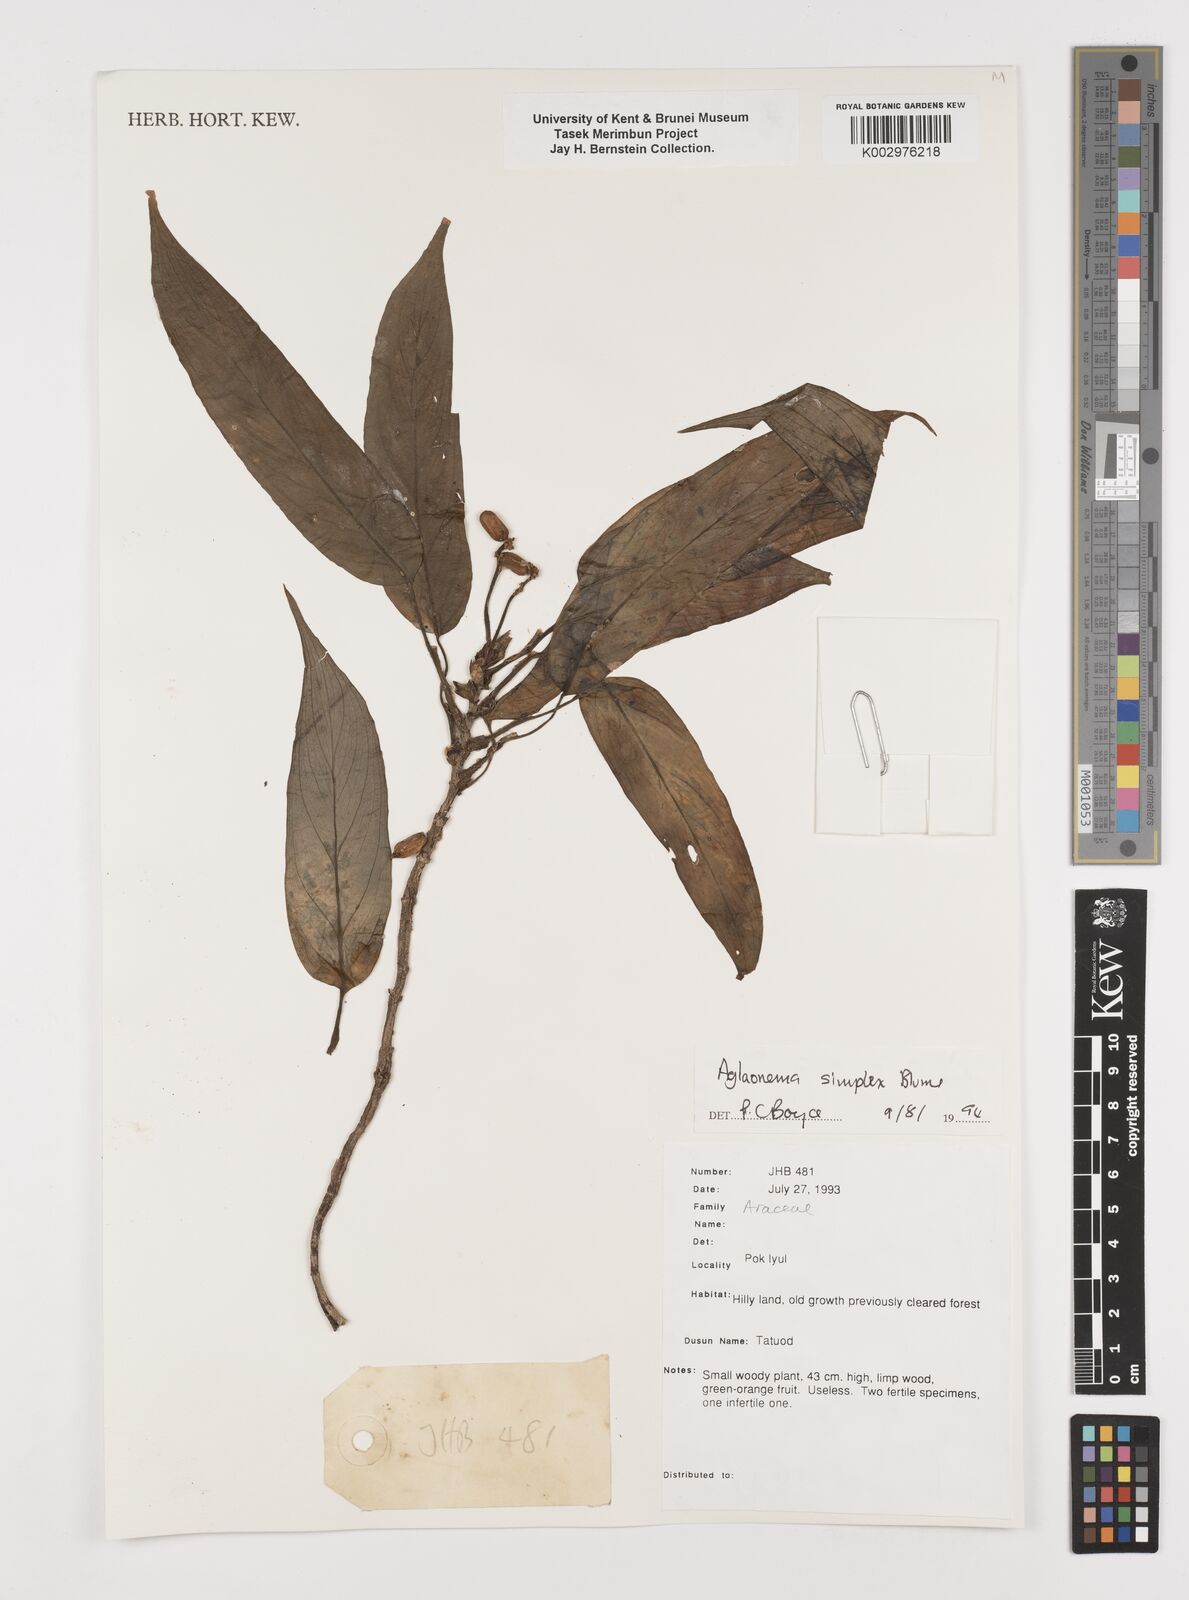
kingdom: Plantae
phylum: Tracheophyta
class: Liliopsida
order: Alismatales
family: Araceae
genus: Aglaonema
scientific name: Aglaonema simplex
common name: Malayan-sword
